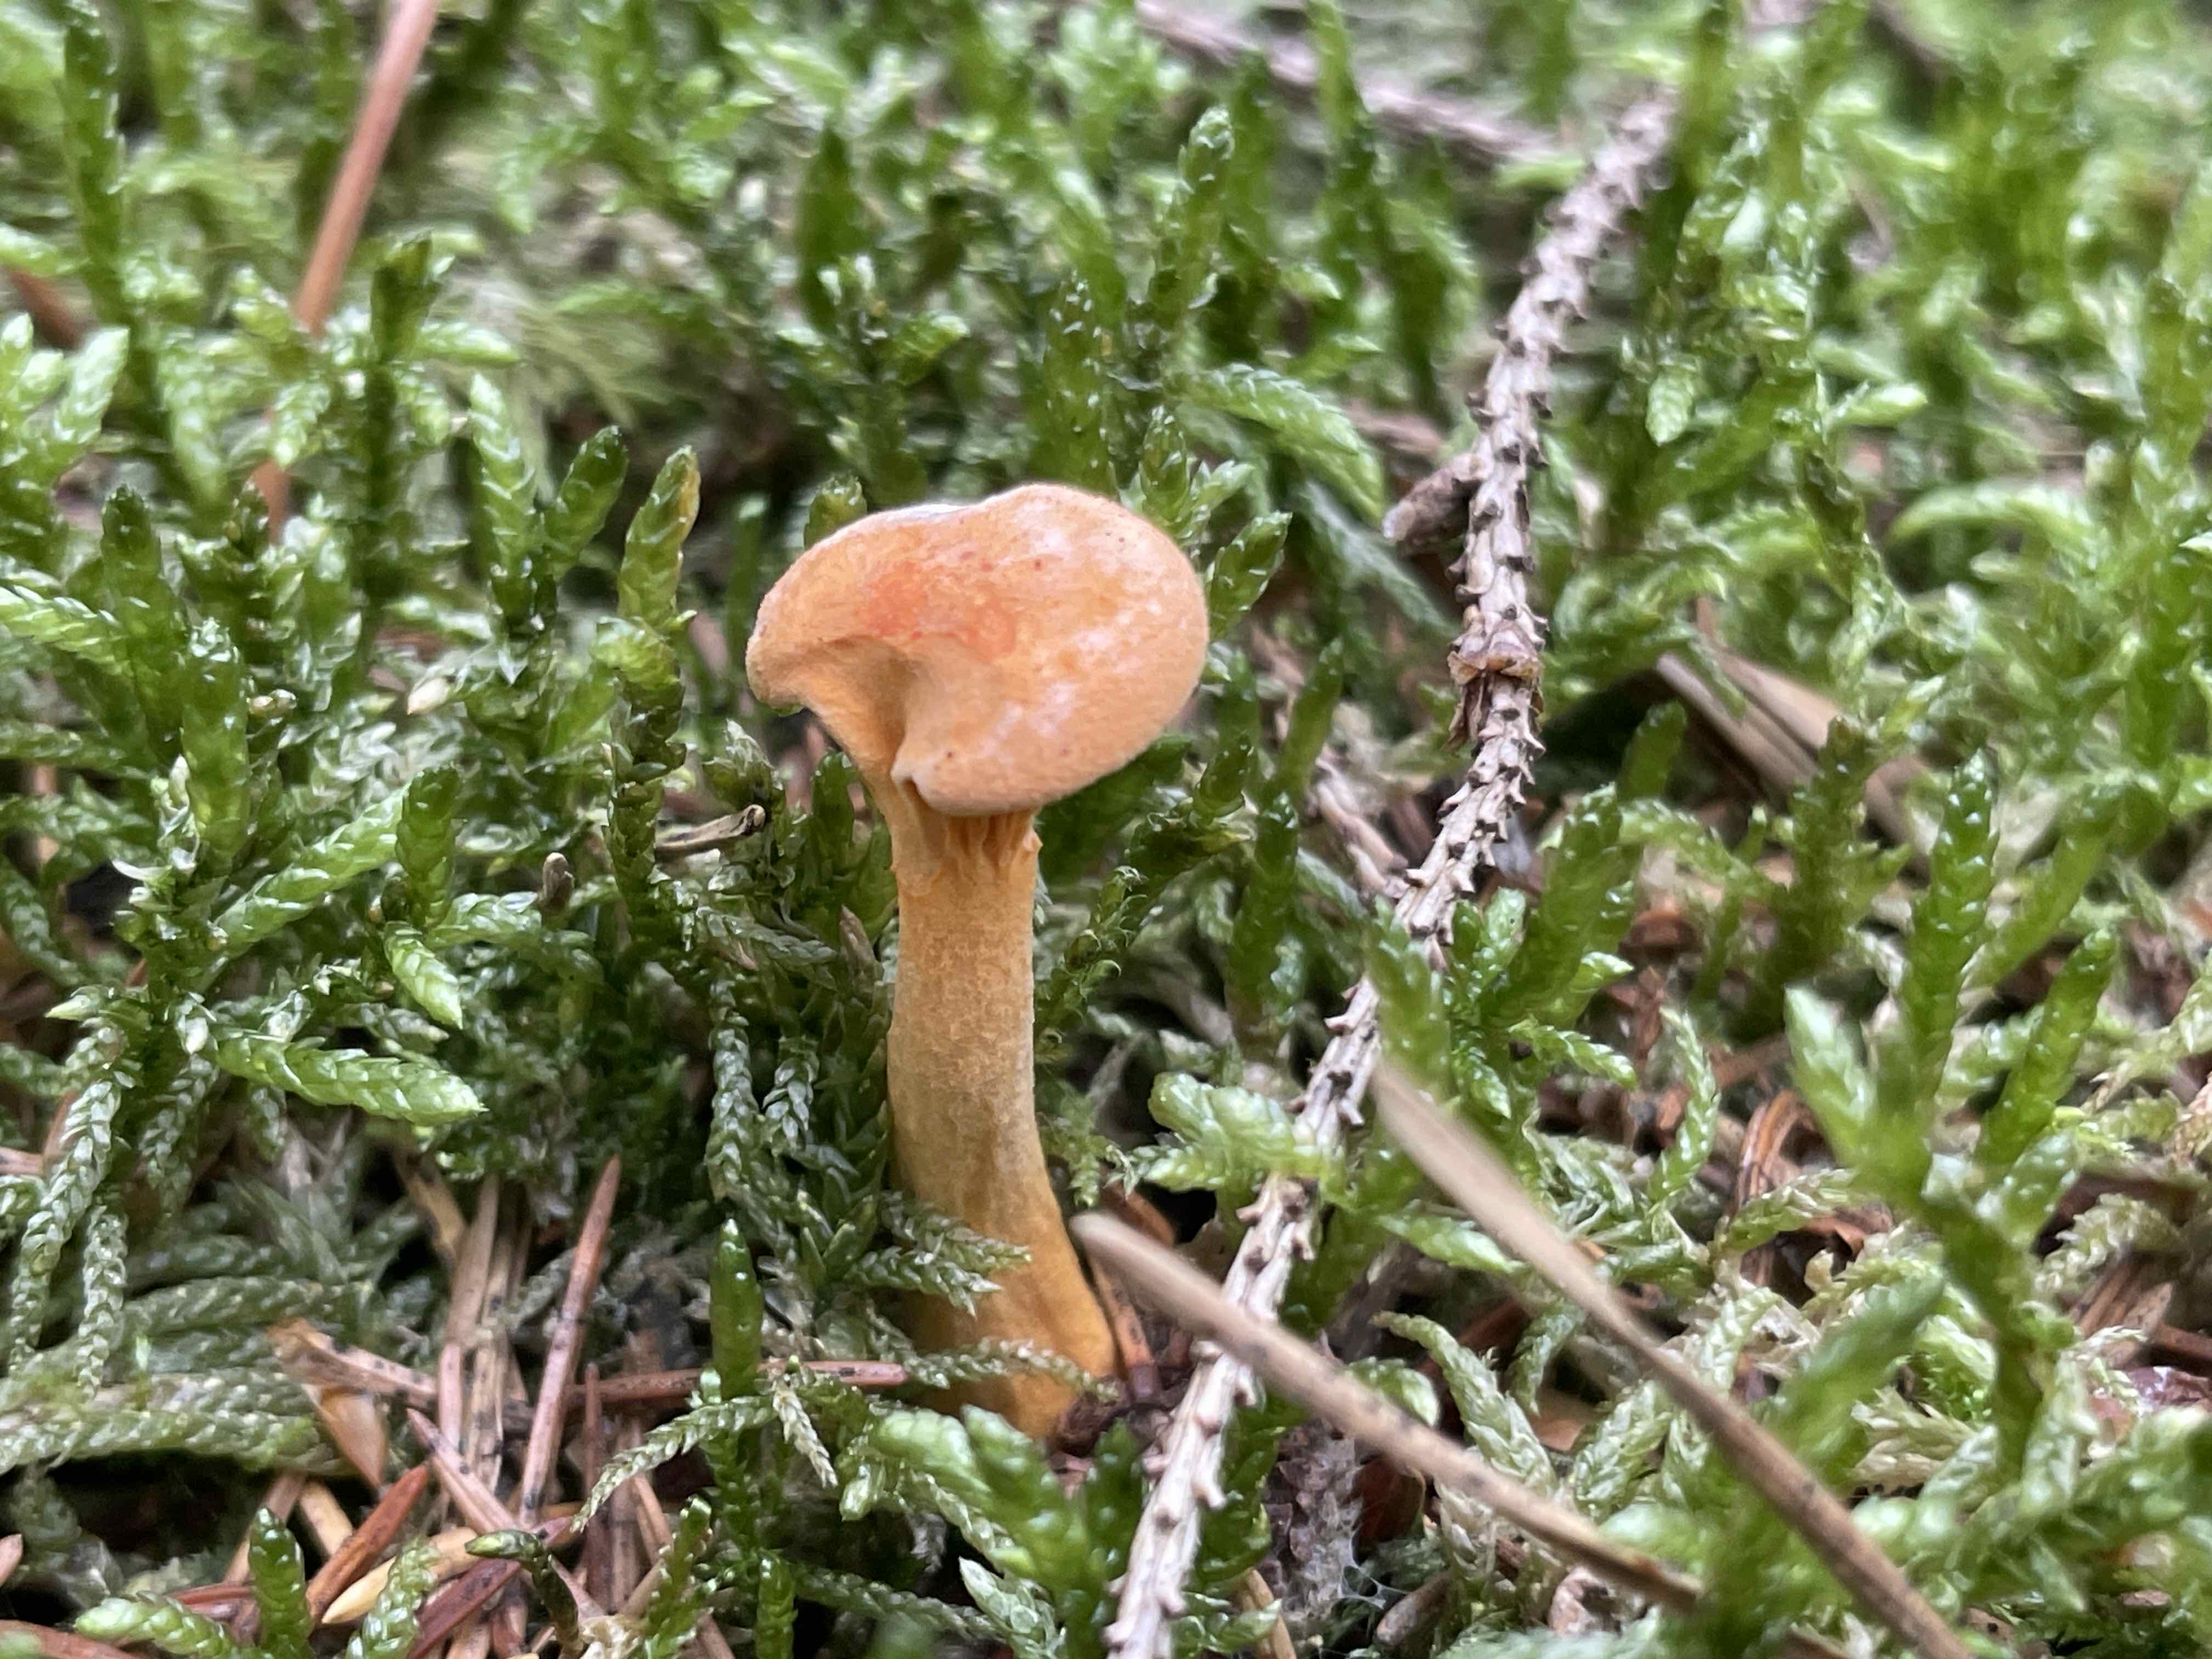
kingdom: Fungi
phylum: Basidiomycota
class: Agaricomycetes
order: Boletales
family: Hygrophoropsidaceae
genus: Hygrophoropsis
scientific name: Hygrophoropsis aurantiaca
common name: almindelig orangekantarel
